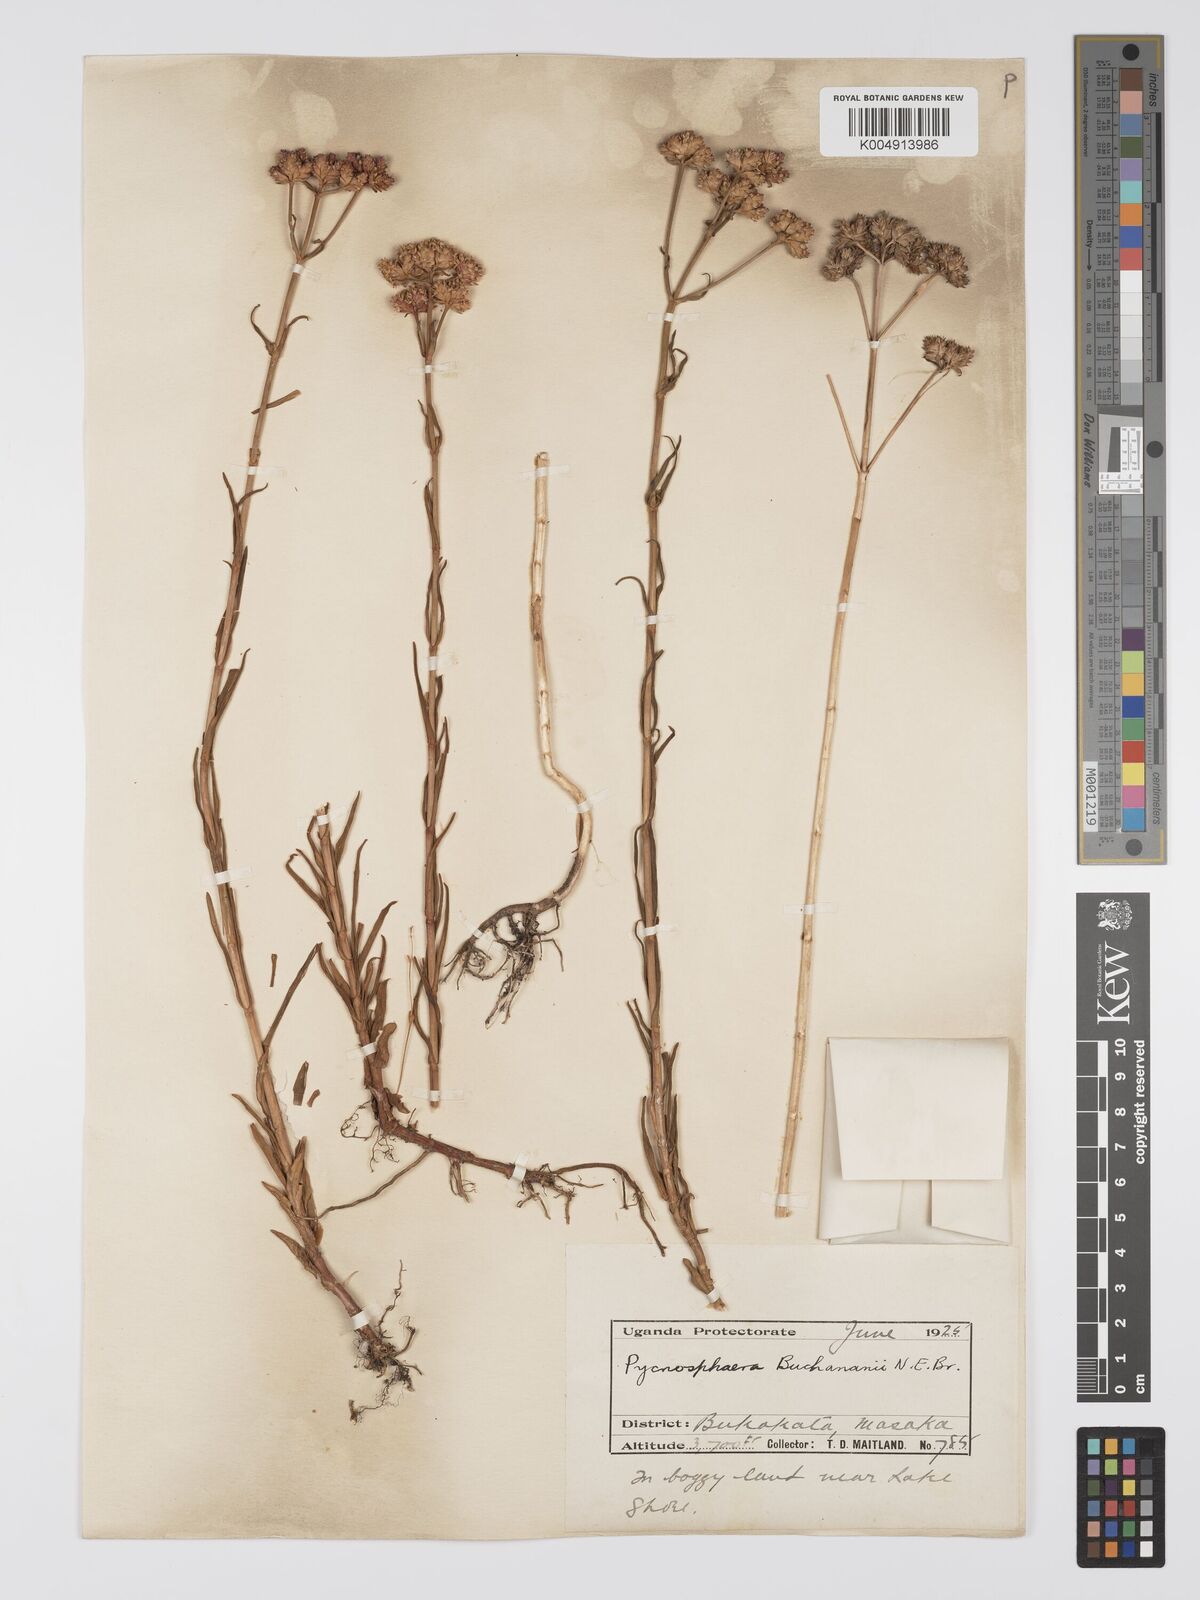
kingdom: Plantae
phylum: Tracheophyta
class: Magnoliopsida
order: Gentianales
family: Gentianaceae
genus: Pycnosphaera
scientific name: Pycnosphaera buchananii
